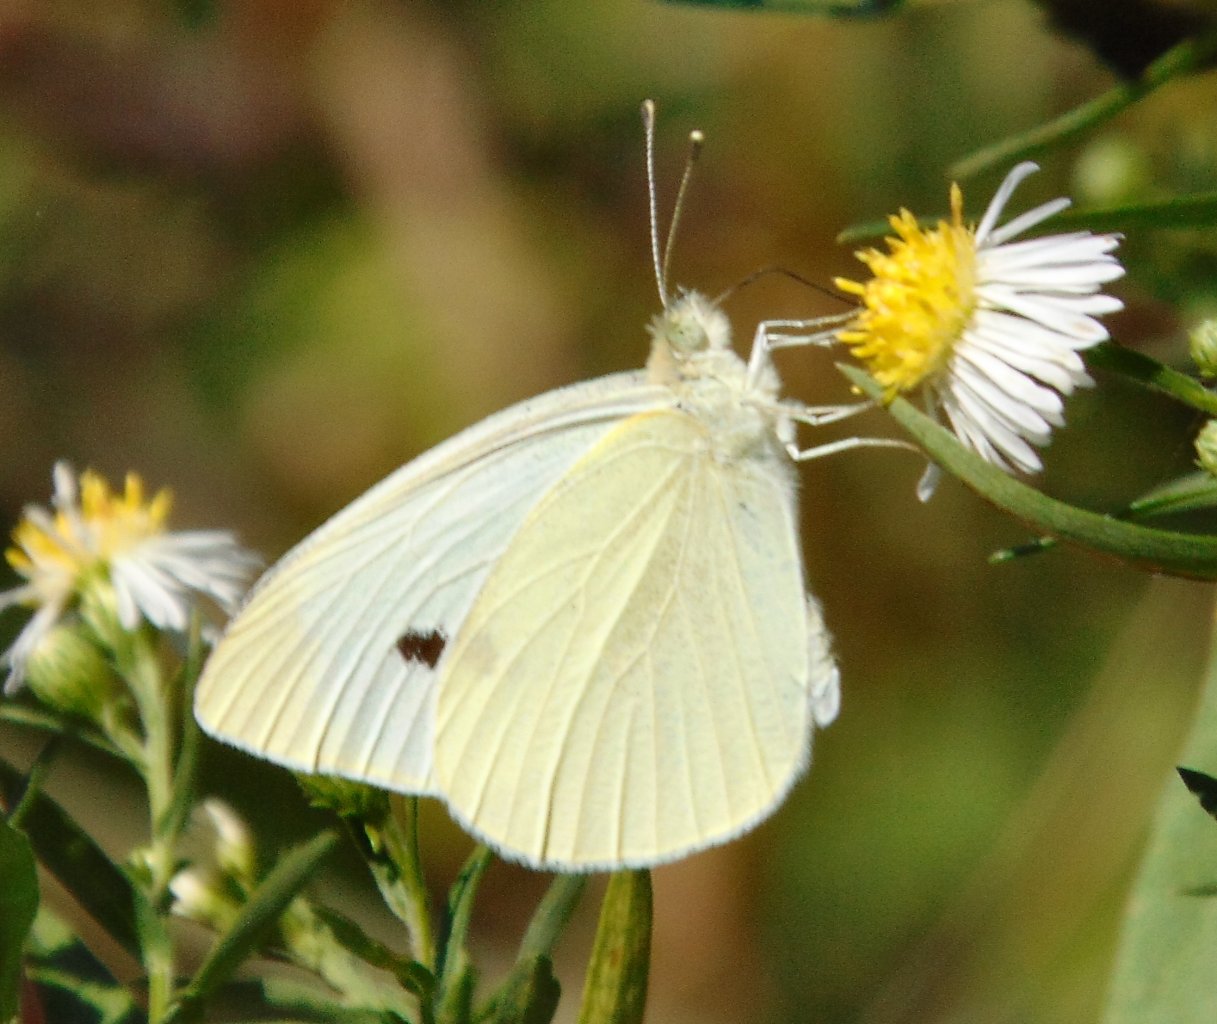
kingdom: Animalia
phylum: Arthropoda
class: Insecta
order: Lepidoptera
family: Pieridae
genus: Pieris
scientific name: Pieris rapae
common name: Cabbage White
